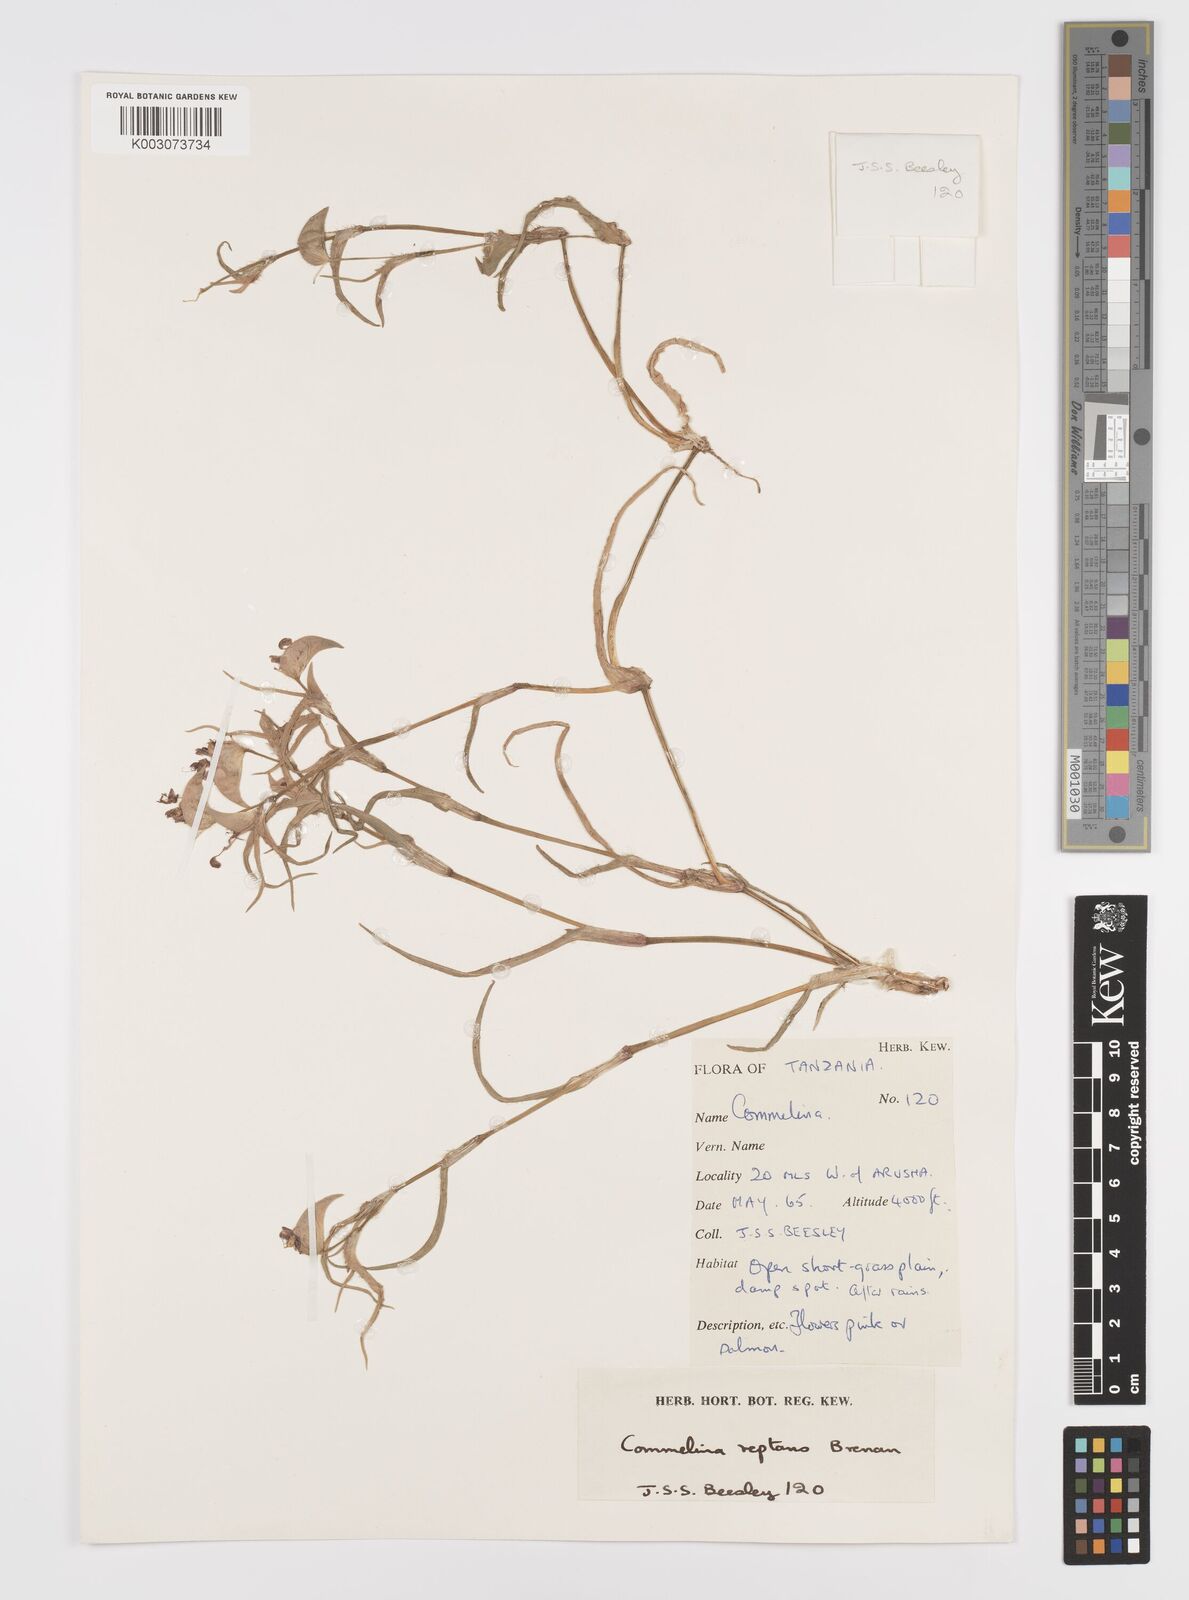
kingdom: Plantae
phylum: Tracheophyta
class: Liliopsida
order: Commelinales
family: Commelinaceae
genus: Commelina
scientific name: Commelina reptans
